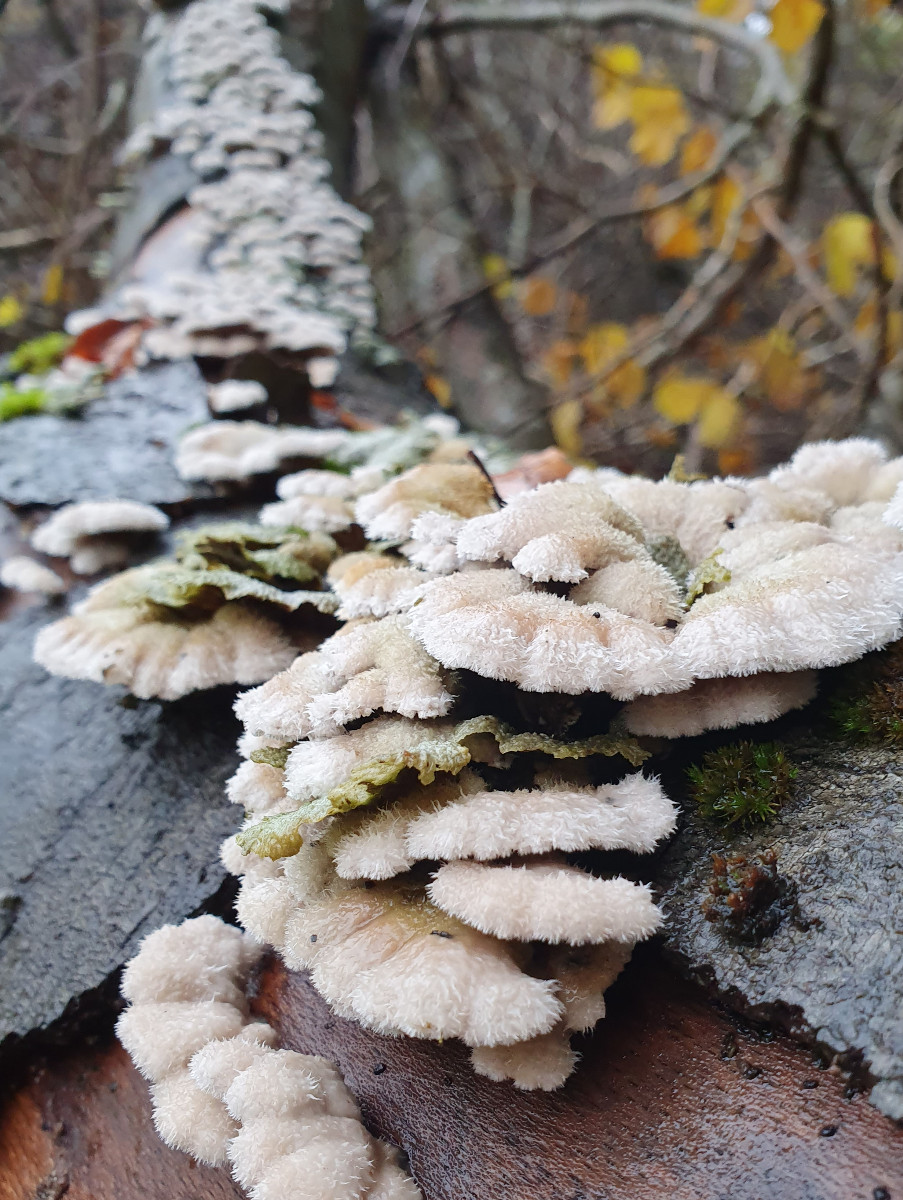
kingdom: Fungi
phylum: Basidiomycota
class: Agaricomycetes
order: Agaricales
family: Schizophyllaceae
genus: Schizophyllum
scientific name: Schizophyllum commune
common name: kløvblad
